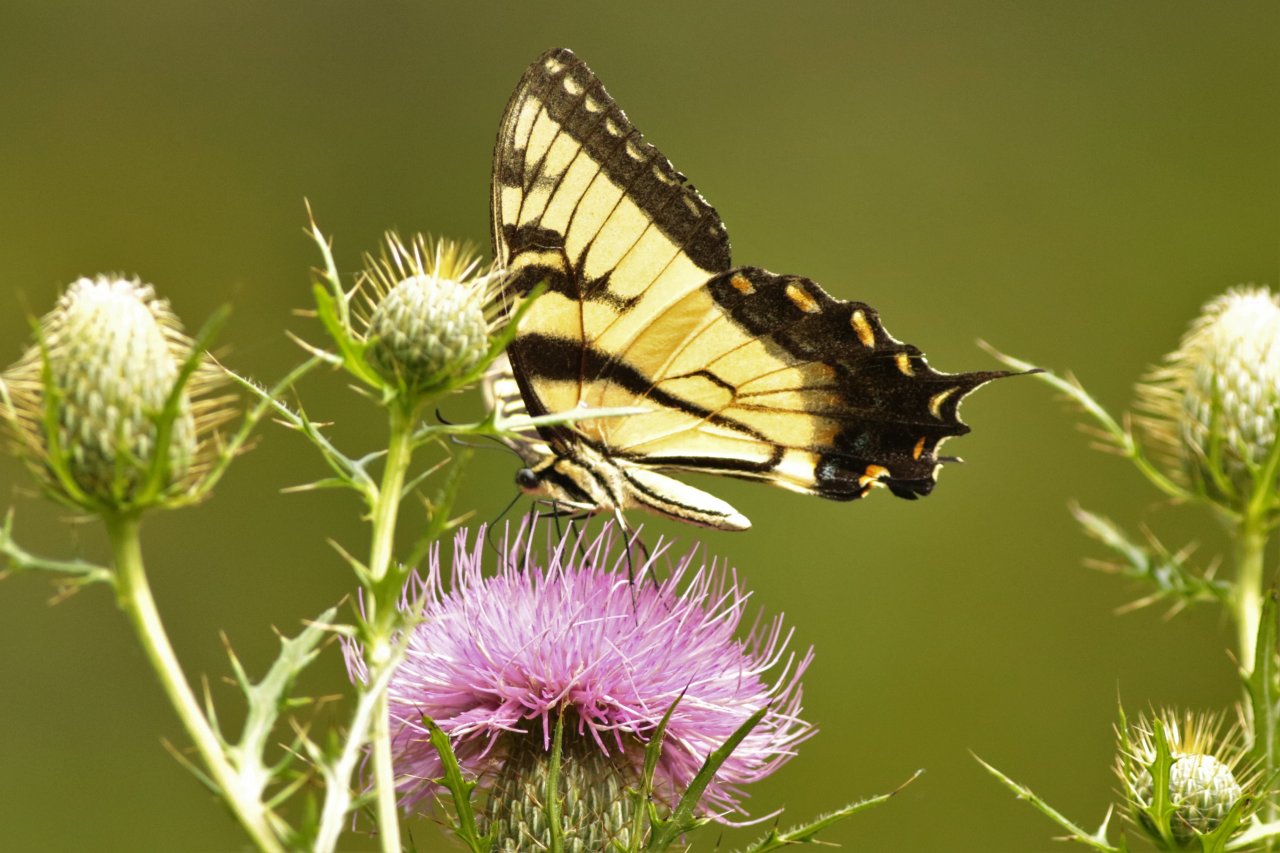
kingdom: Animalia
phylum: Arthropoda
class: Insecta
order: Lepidoptera
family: Papilionidae
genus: Pterourus
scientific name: Pterourus glaucus
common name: Eastern Tiger Swallowtail
